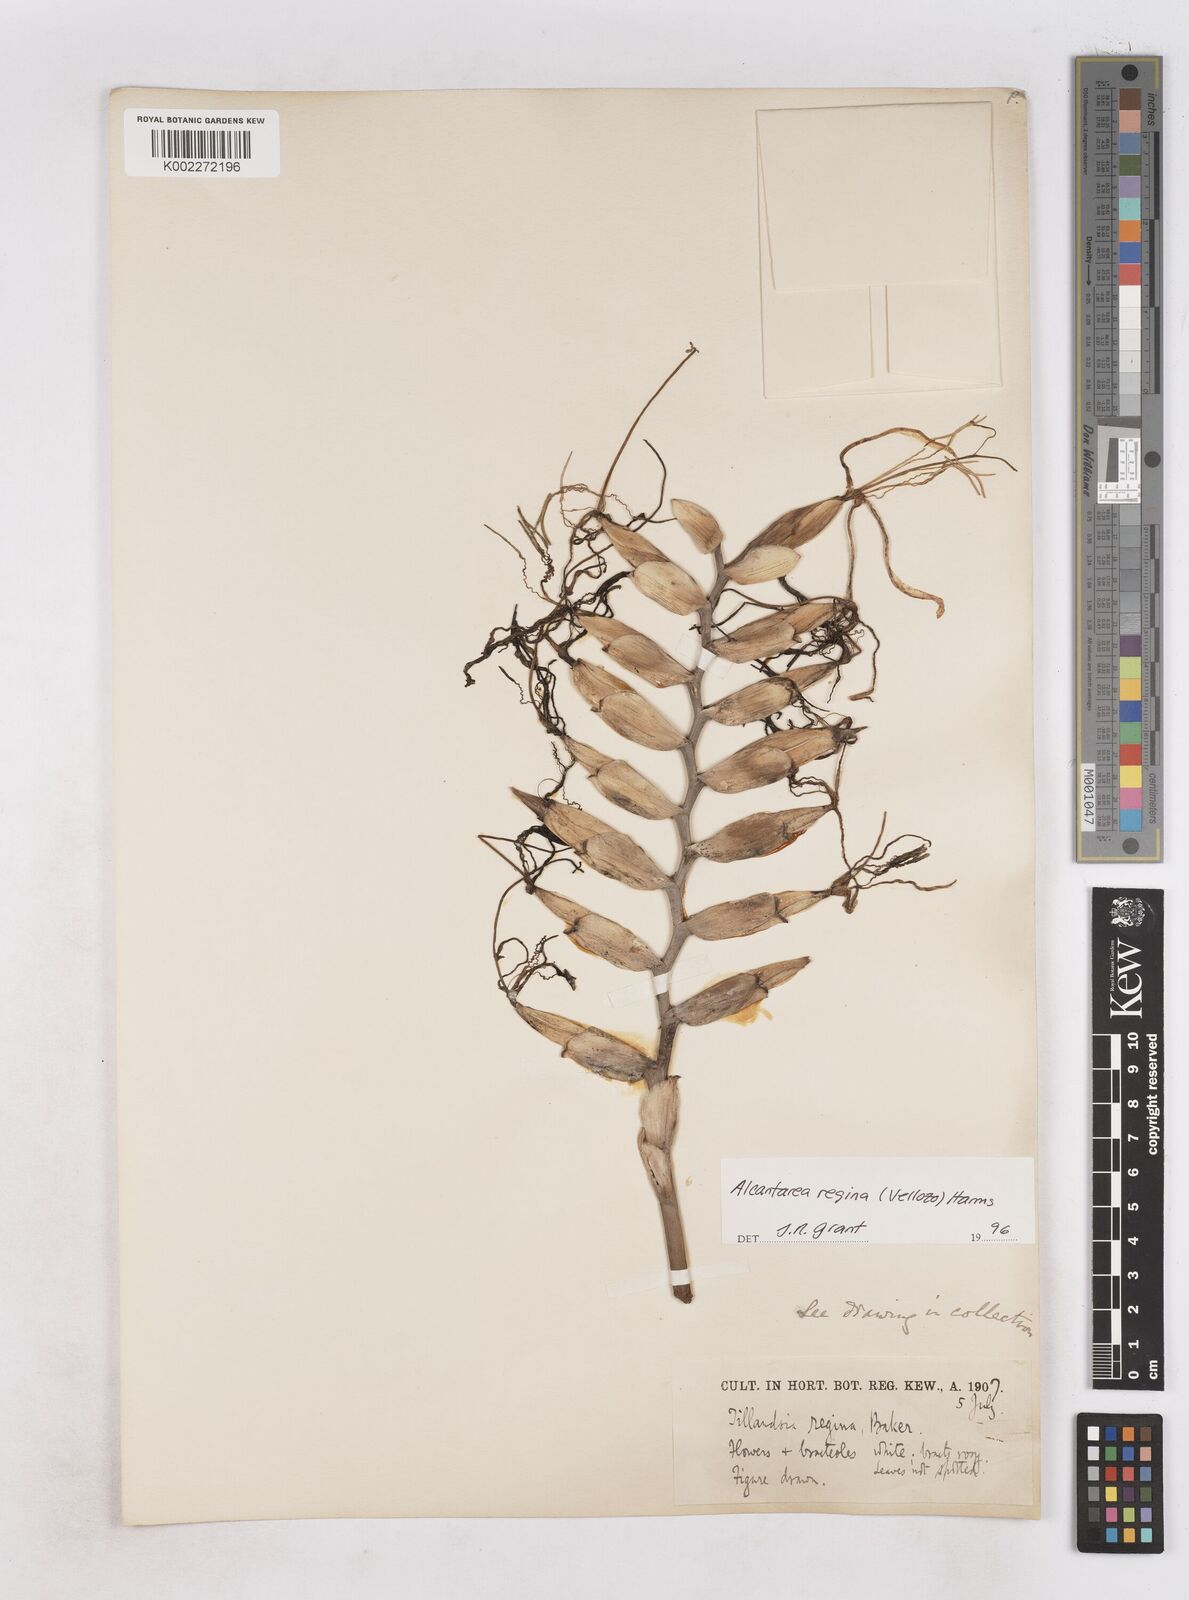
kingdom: Plantae
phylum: Tracheophyta
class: Liliopsida
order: Poales
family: Bromeliaceae
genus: Alcantarea
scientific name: Alcantarea regina
